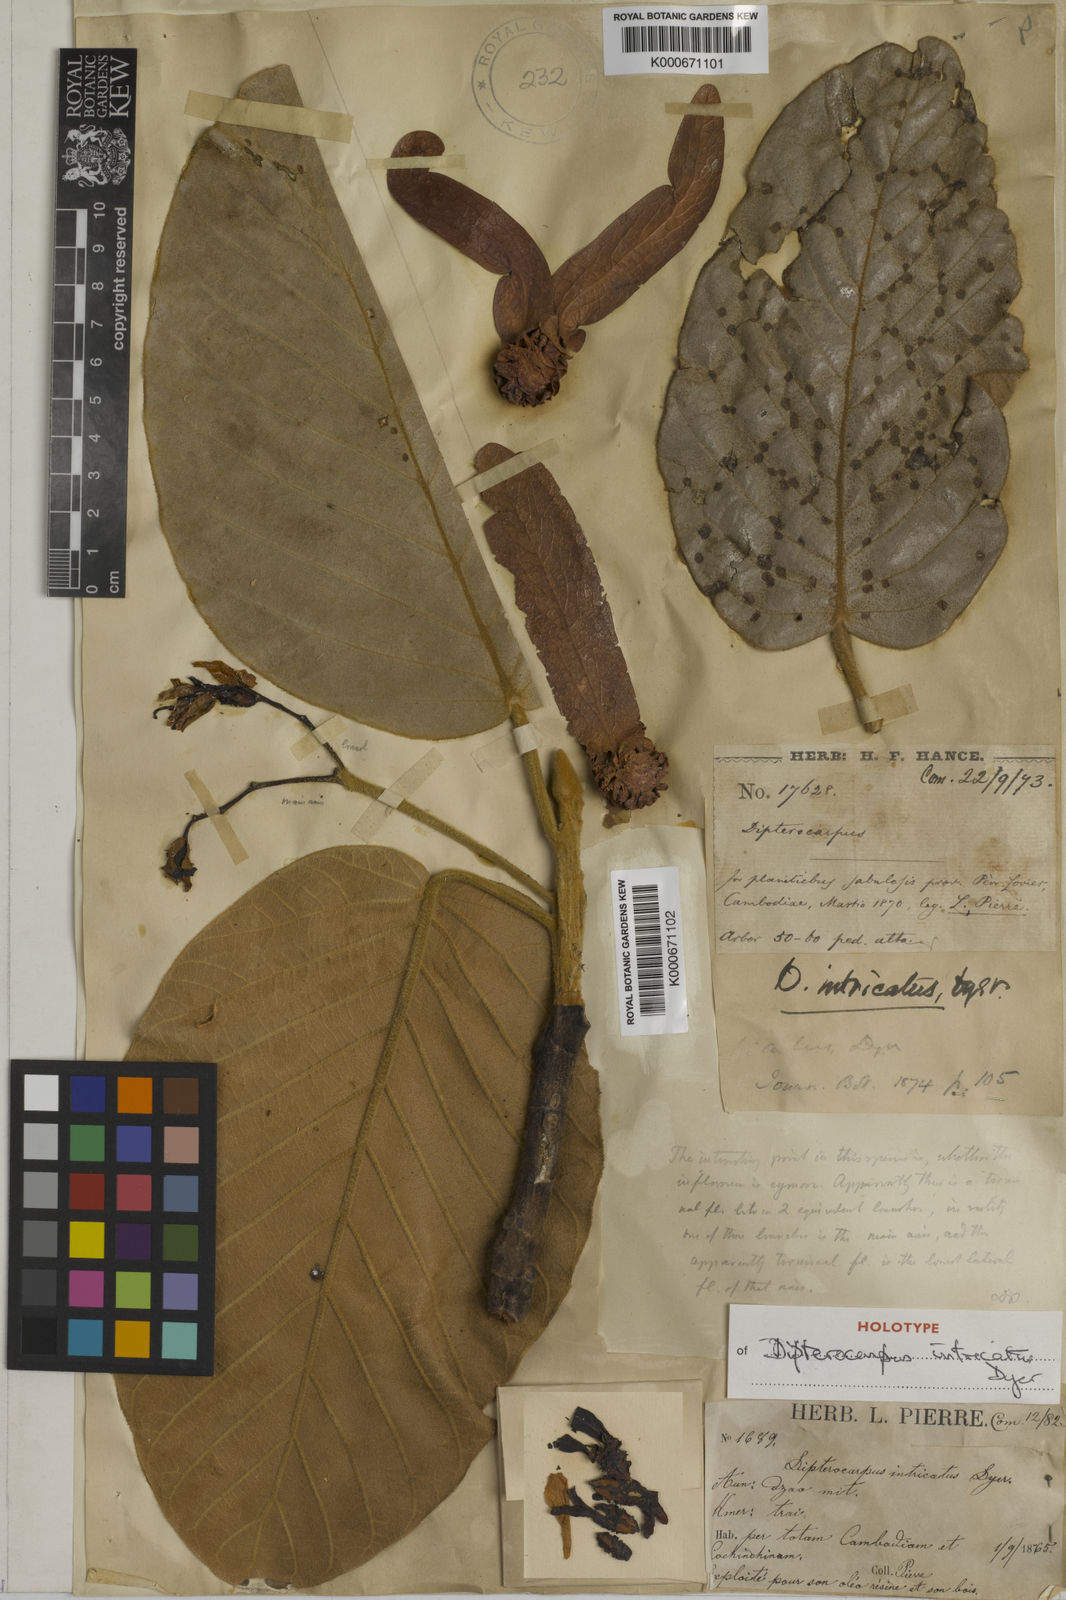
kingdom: Plantae
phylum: Tracheophyta
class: Magnoliopsida
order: Malvales
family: Dipterocarpaceae
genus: Dipterocarpus
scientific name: Dipterocarpus intricatus
